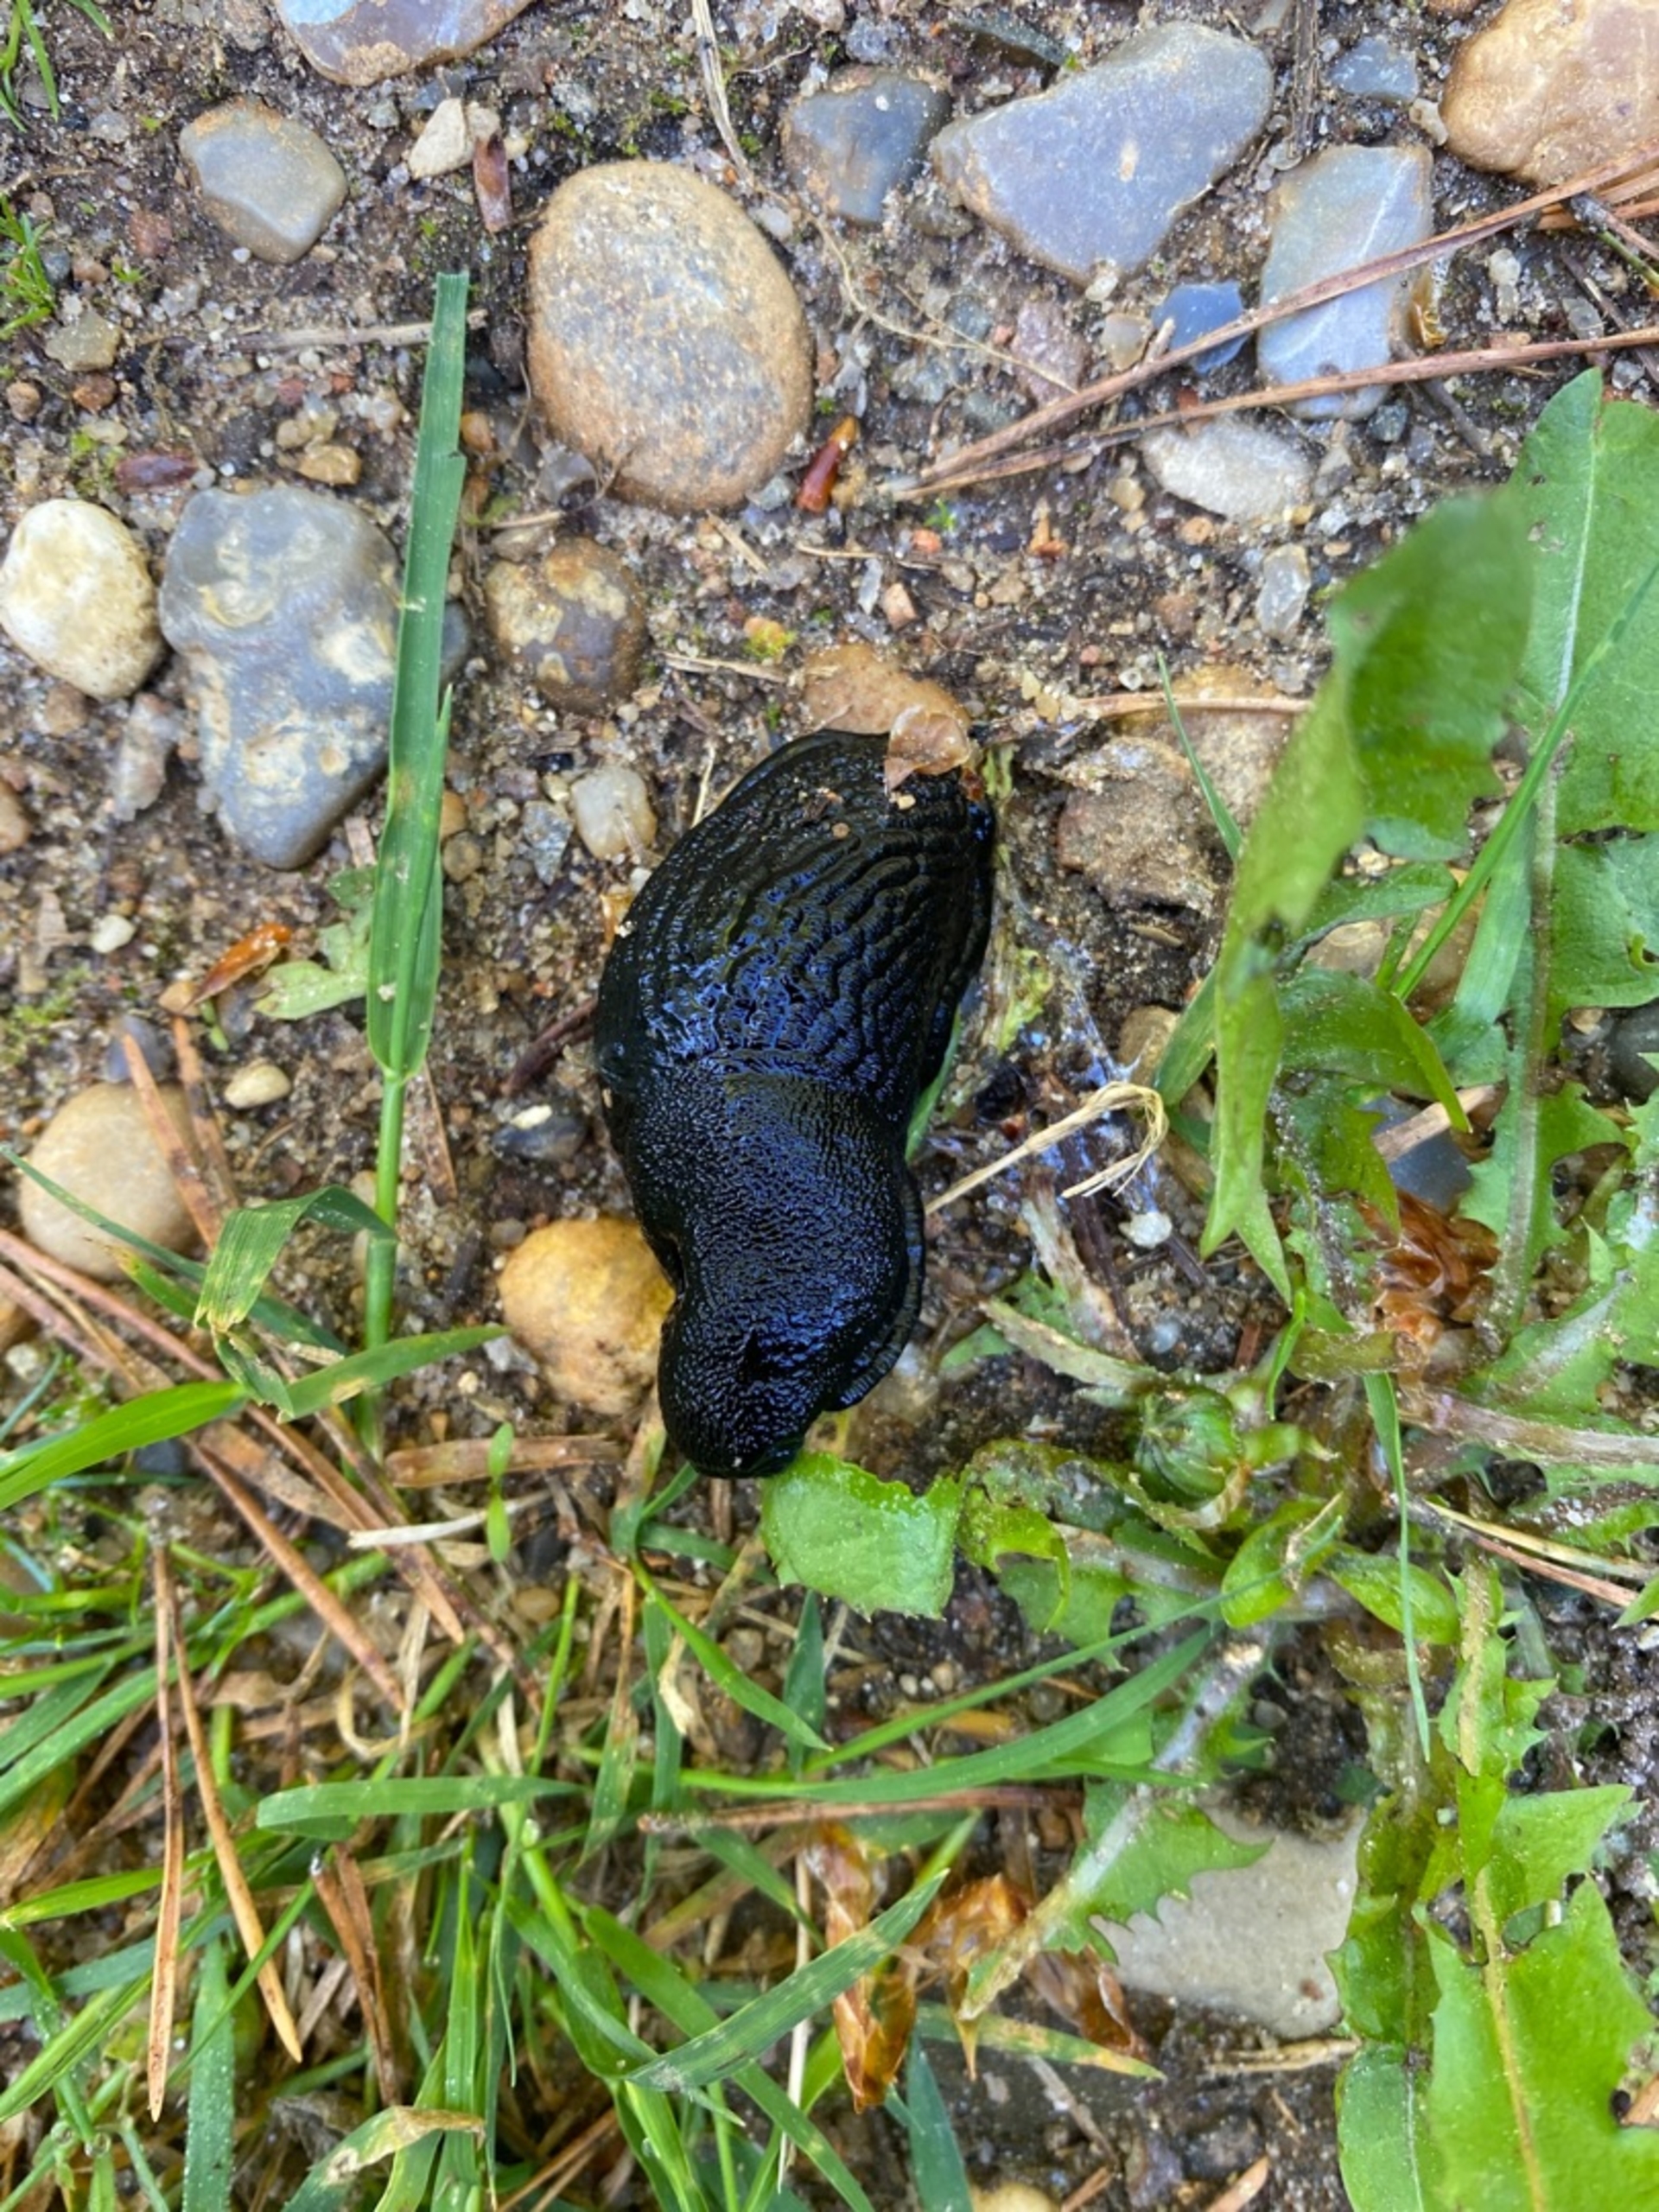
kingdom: Animalia
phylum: Mollusca
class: Gastropoda
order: Stylommatophora
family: Arionidae
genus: Arion
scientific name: Arion ater
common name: Sort skovsnegl
